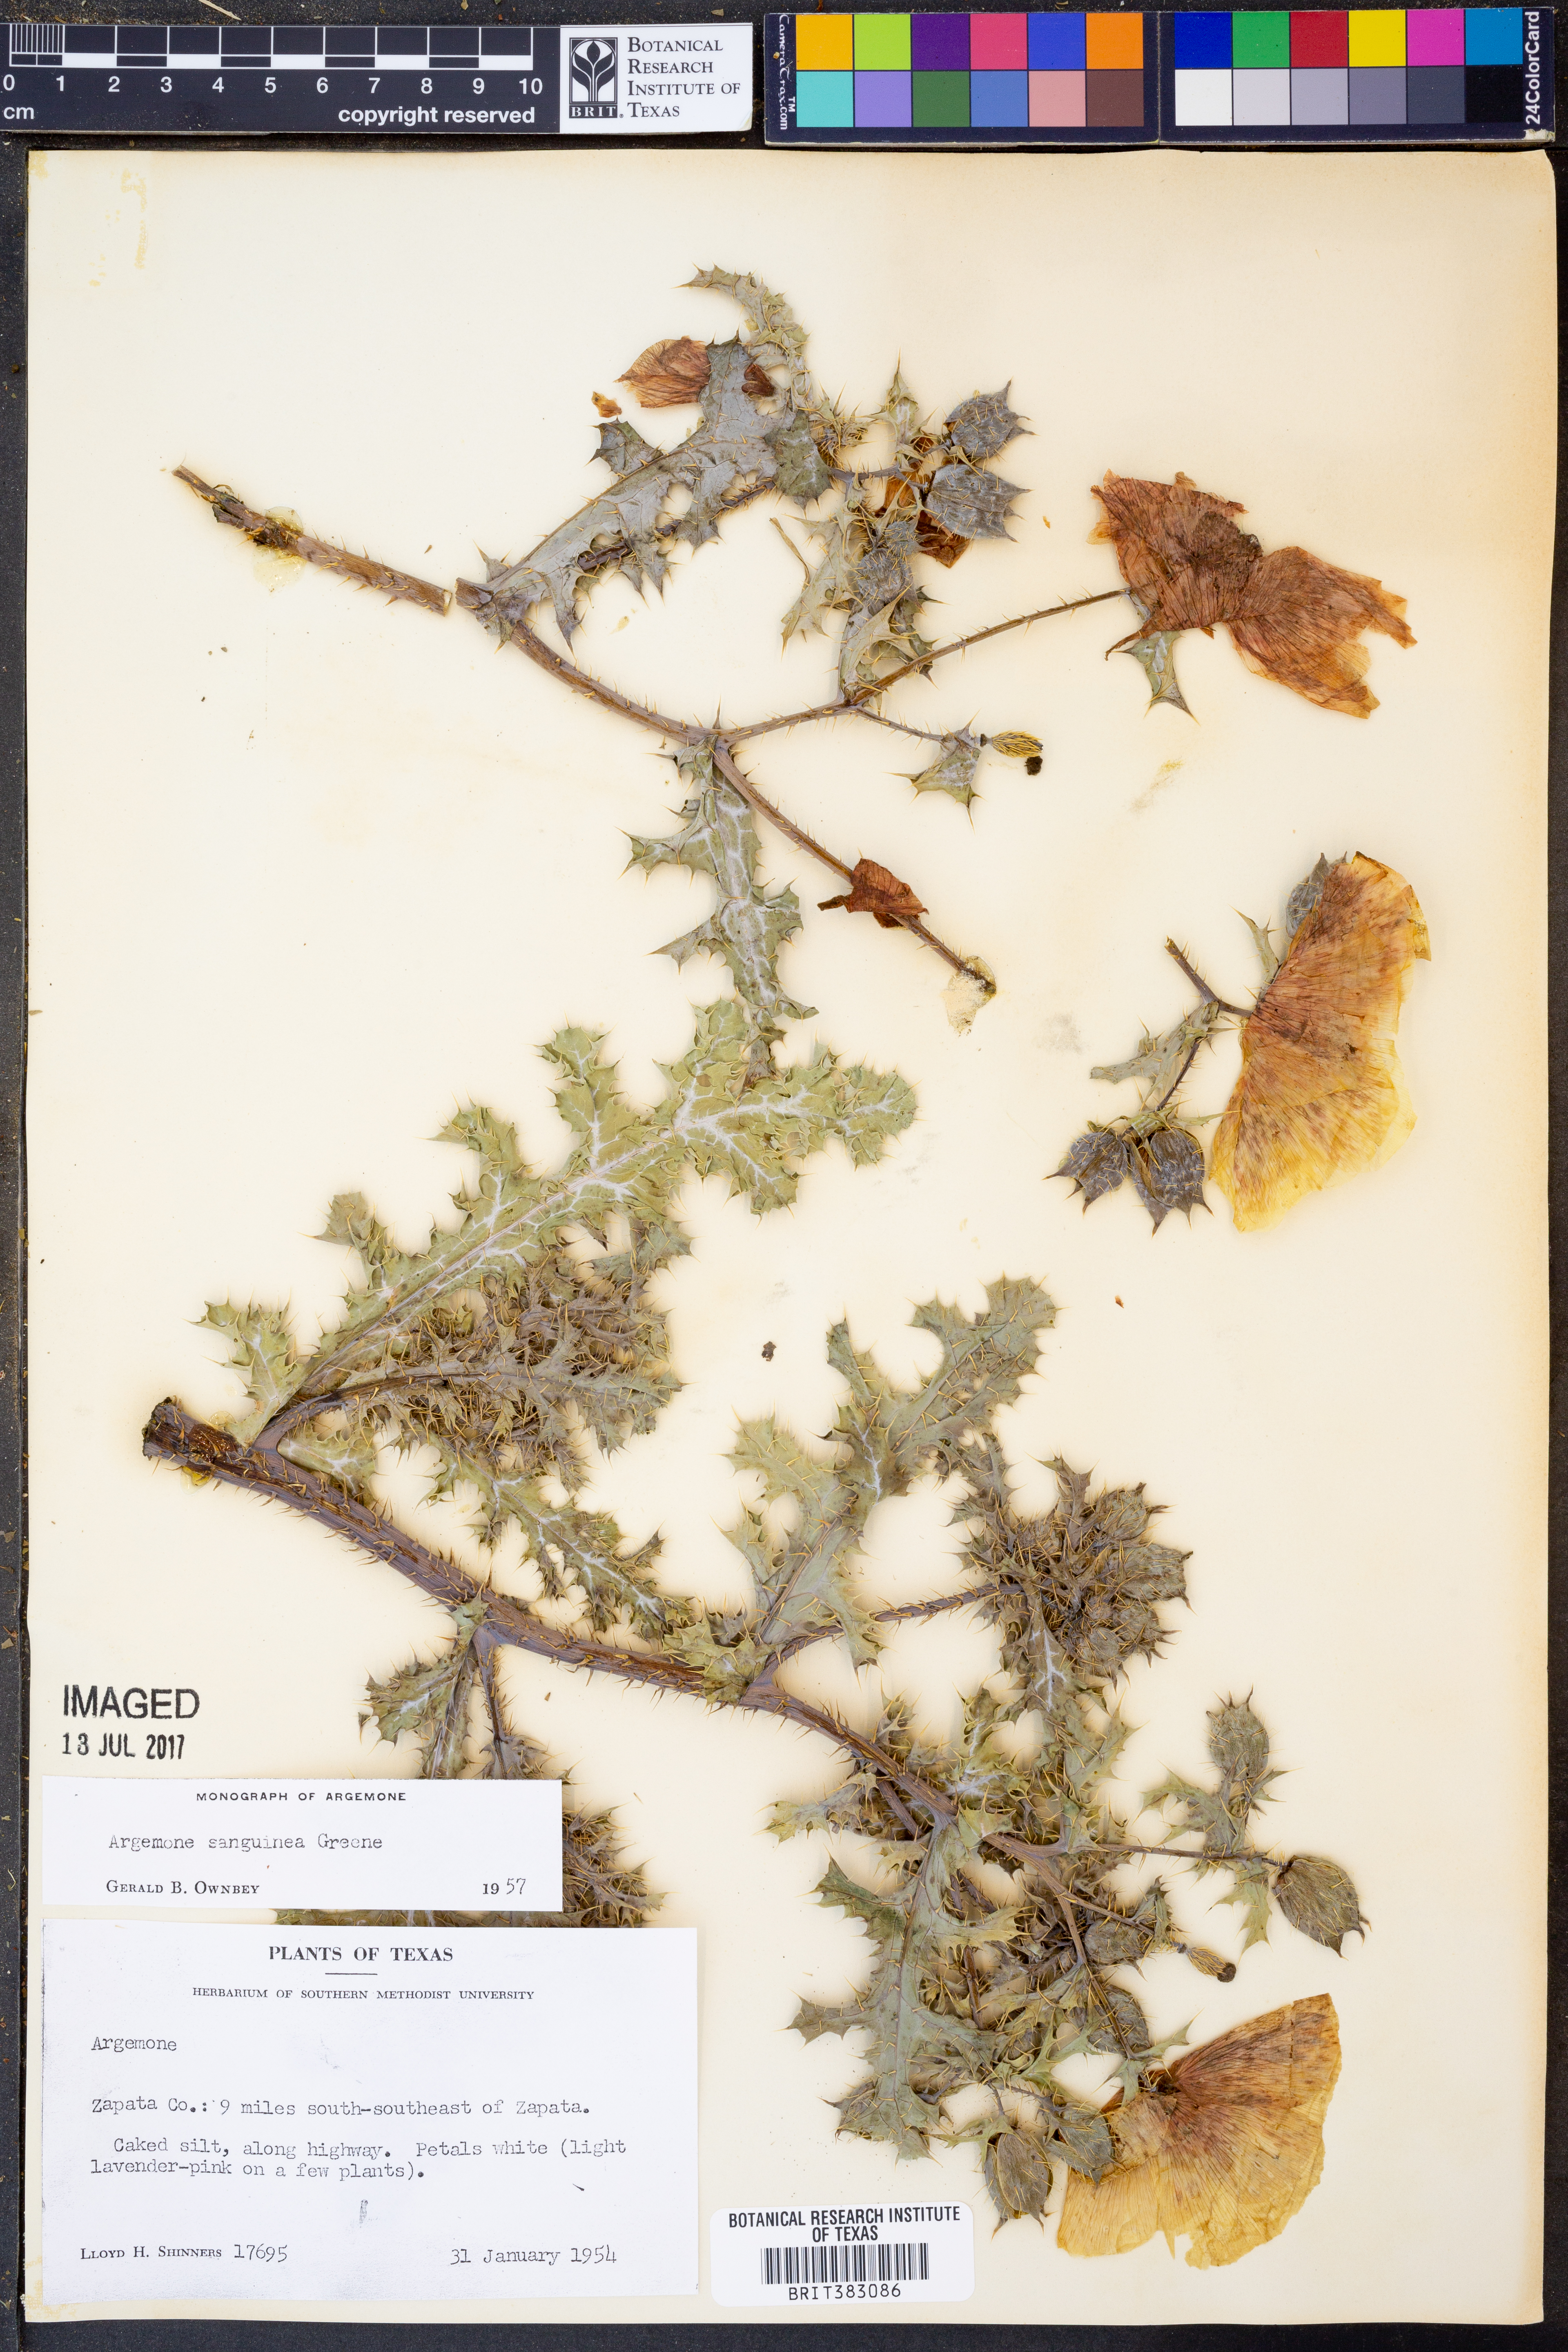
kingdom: Plantae
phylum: Tracheophyta
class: Magnoliopsida
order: Ranunculales
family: Papaveraceae
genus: Argemone
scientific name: Argemone sanguinea
